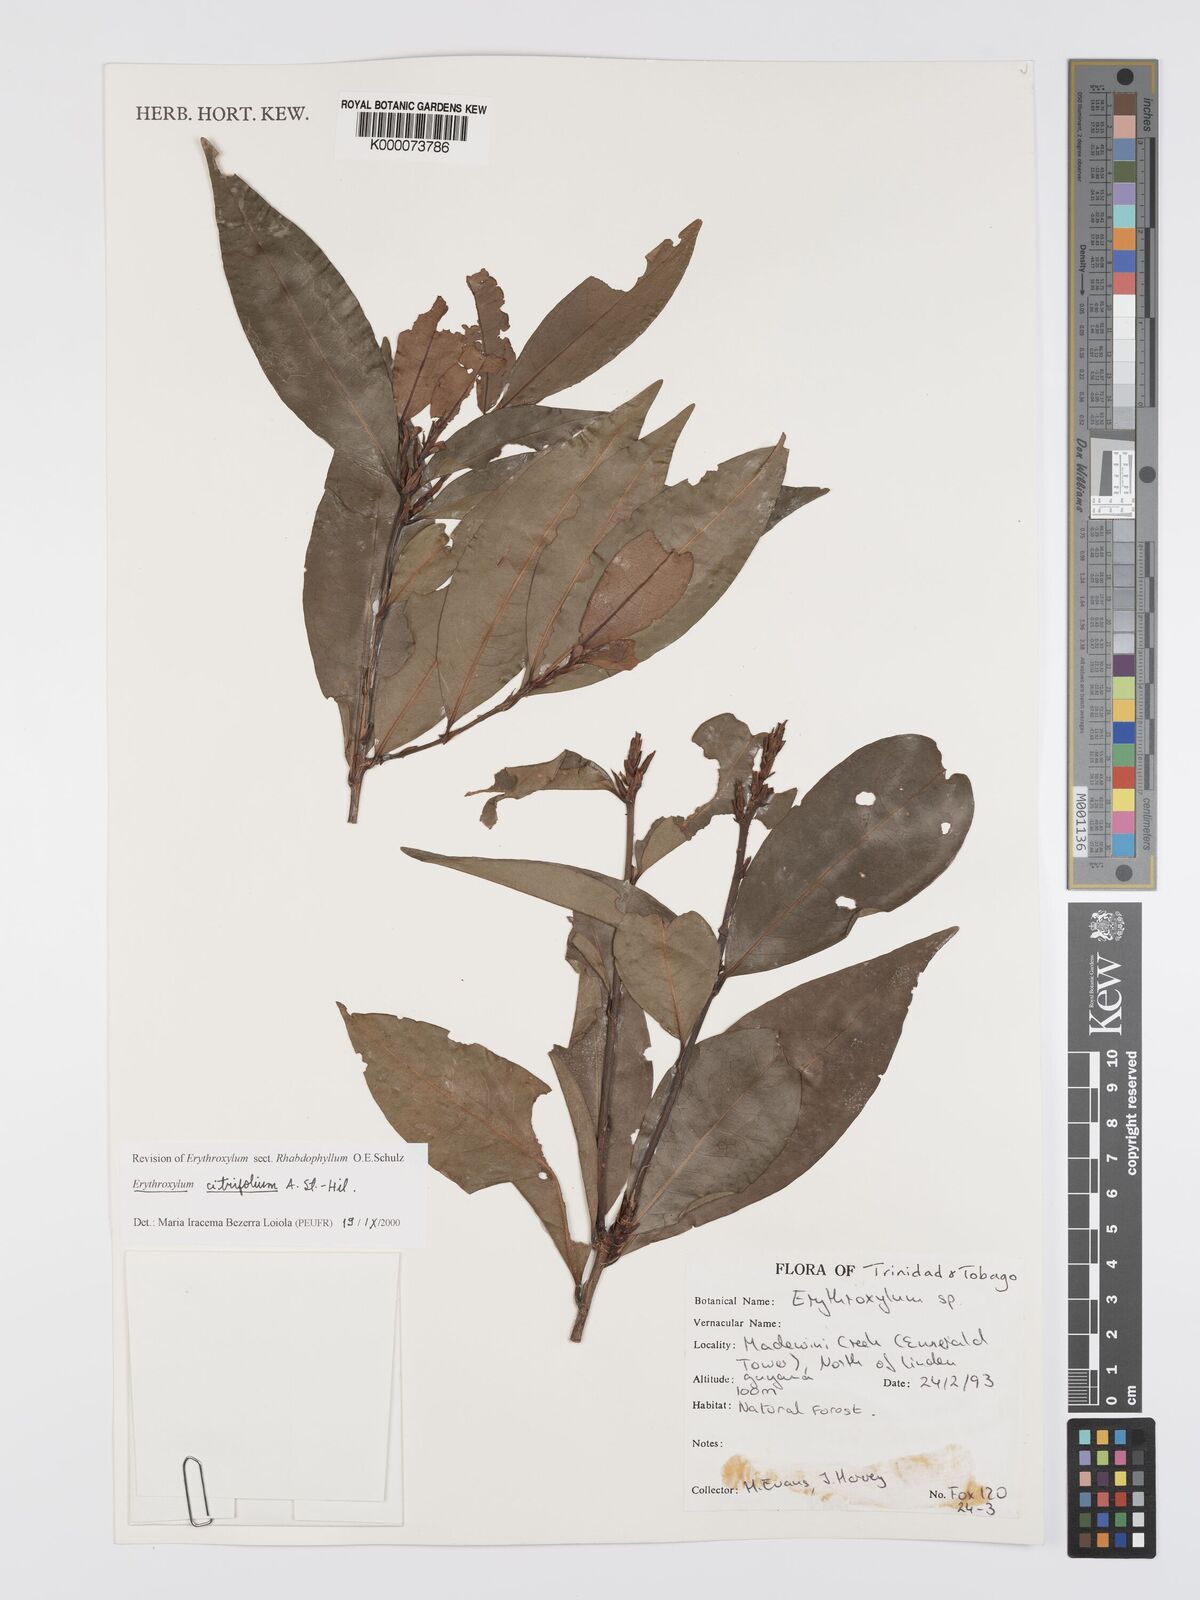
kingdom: Plantae
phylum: Tracheophyta
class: Magnoliopsida
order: Malpighiales
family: Erythroxylaceae
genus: Erythroxylum
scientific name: Erythroxylum citrifolium
